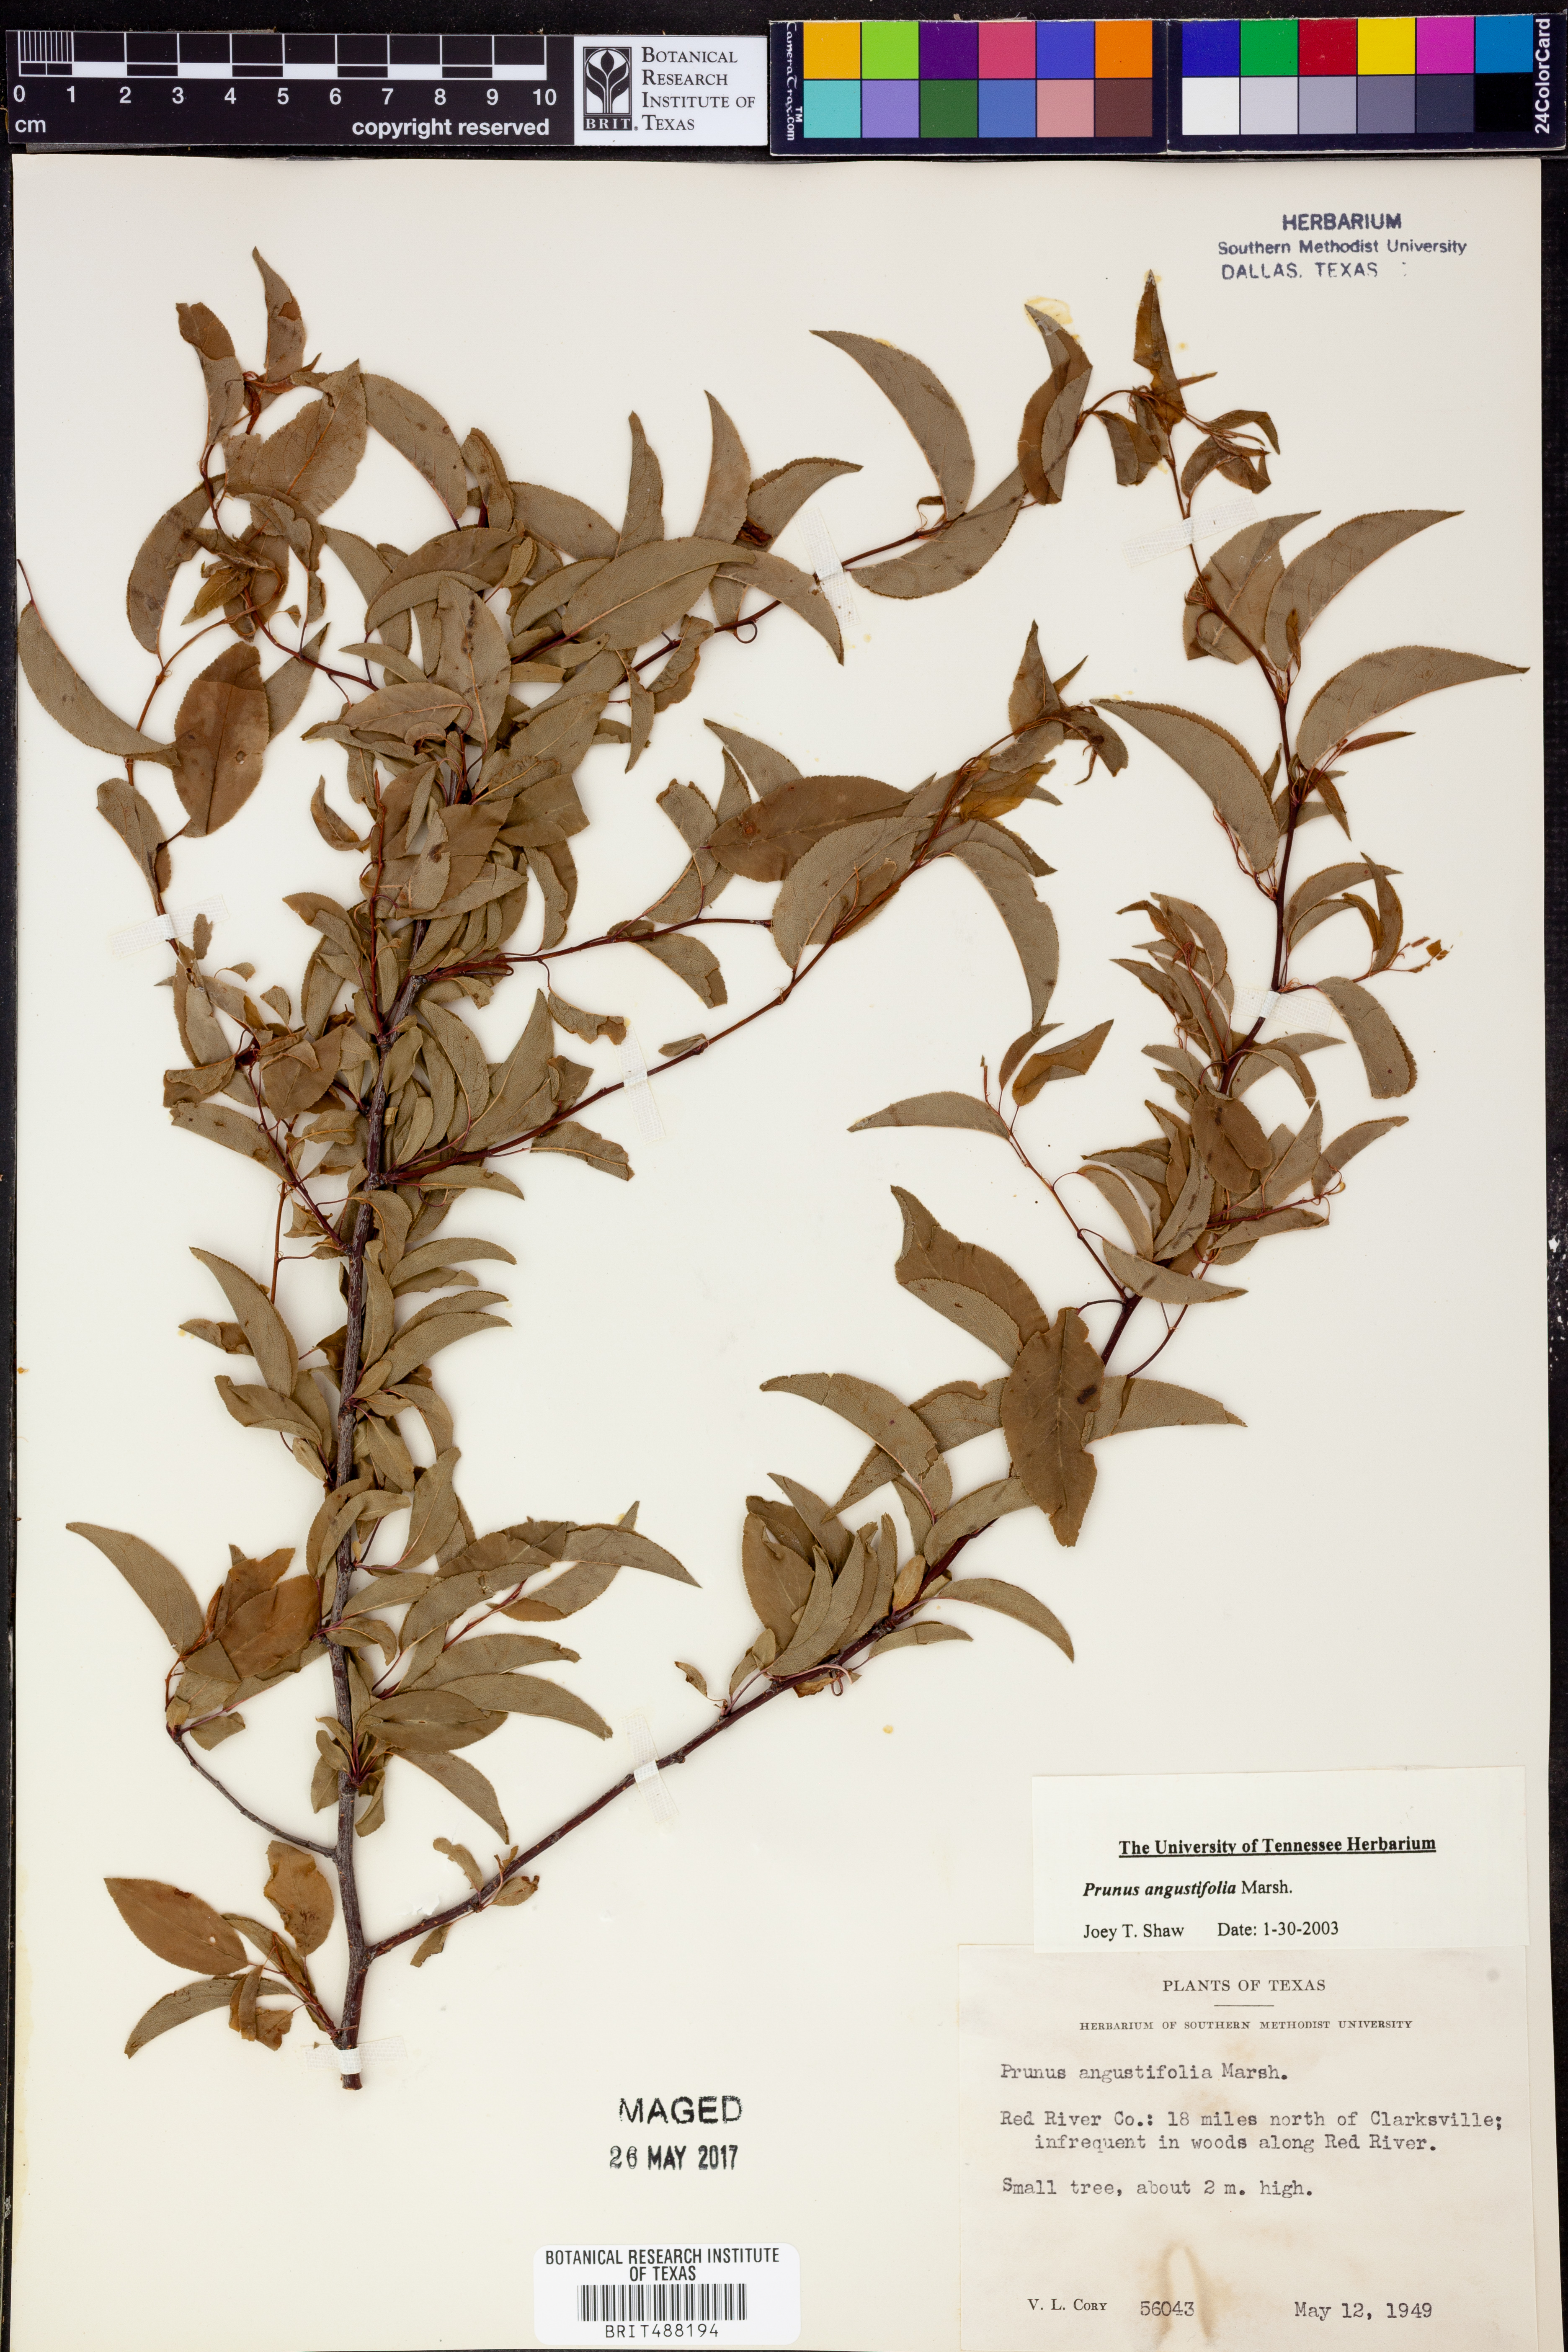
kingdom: Plantae
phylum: Tracheophyta
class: Magnoliopsida
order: Rosales
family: Rosaceae
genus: Prunus
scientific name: Prunus angustifolia
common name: Cherokee plum
